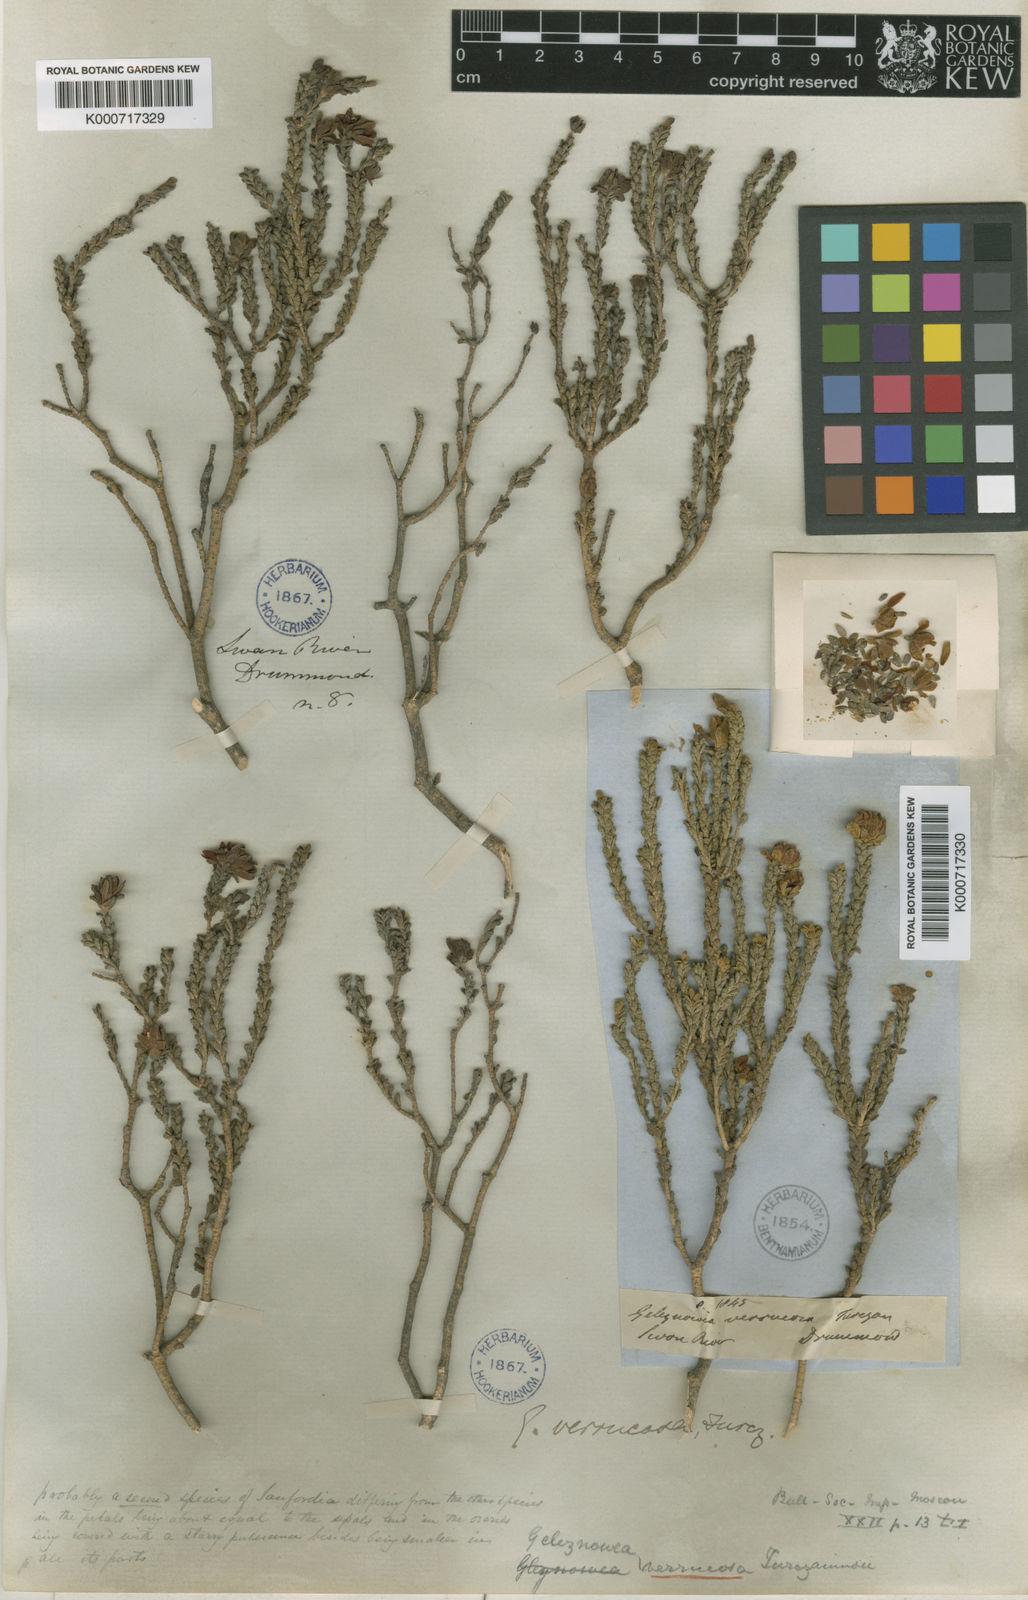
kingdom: Plantae
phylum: Tracheophyta
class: Magnoliopsida
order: Sapindales
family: Rutaceae
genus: Geleznowia
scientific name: Geleznowia verrucosa
